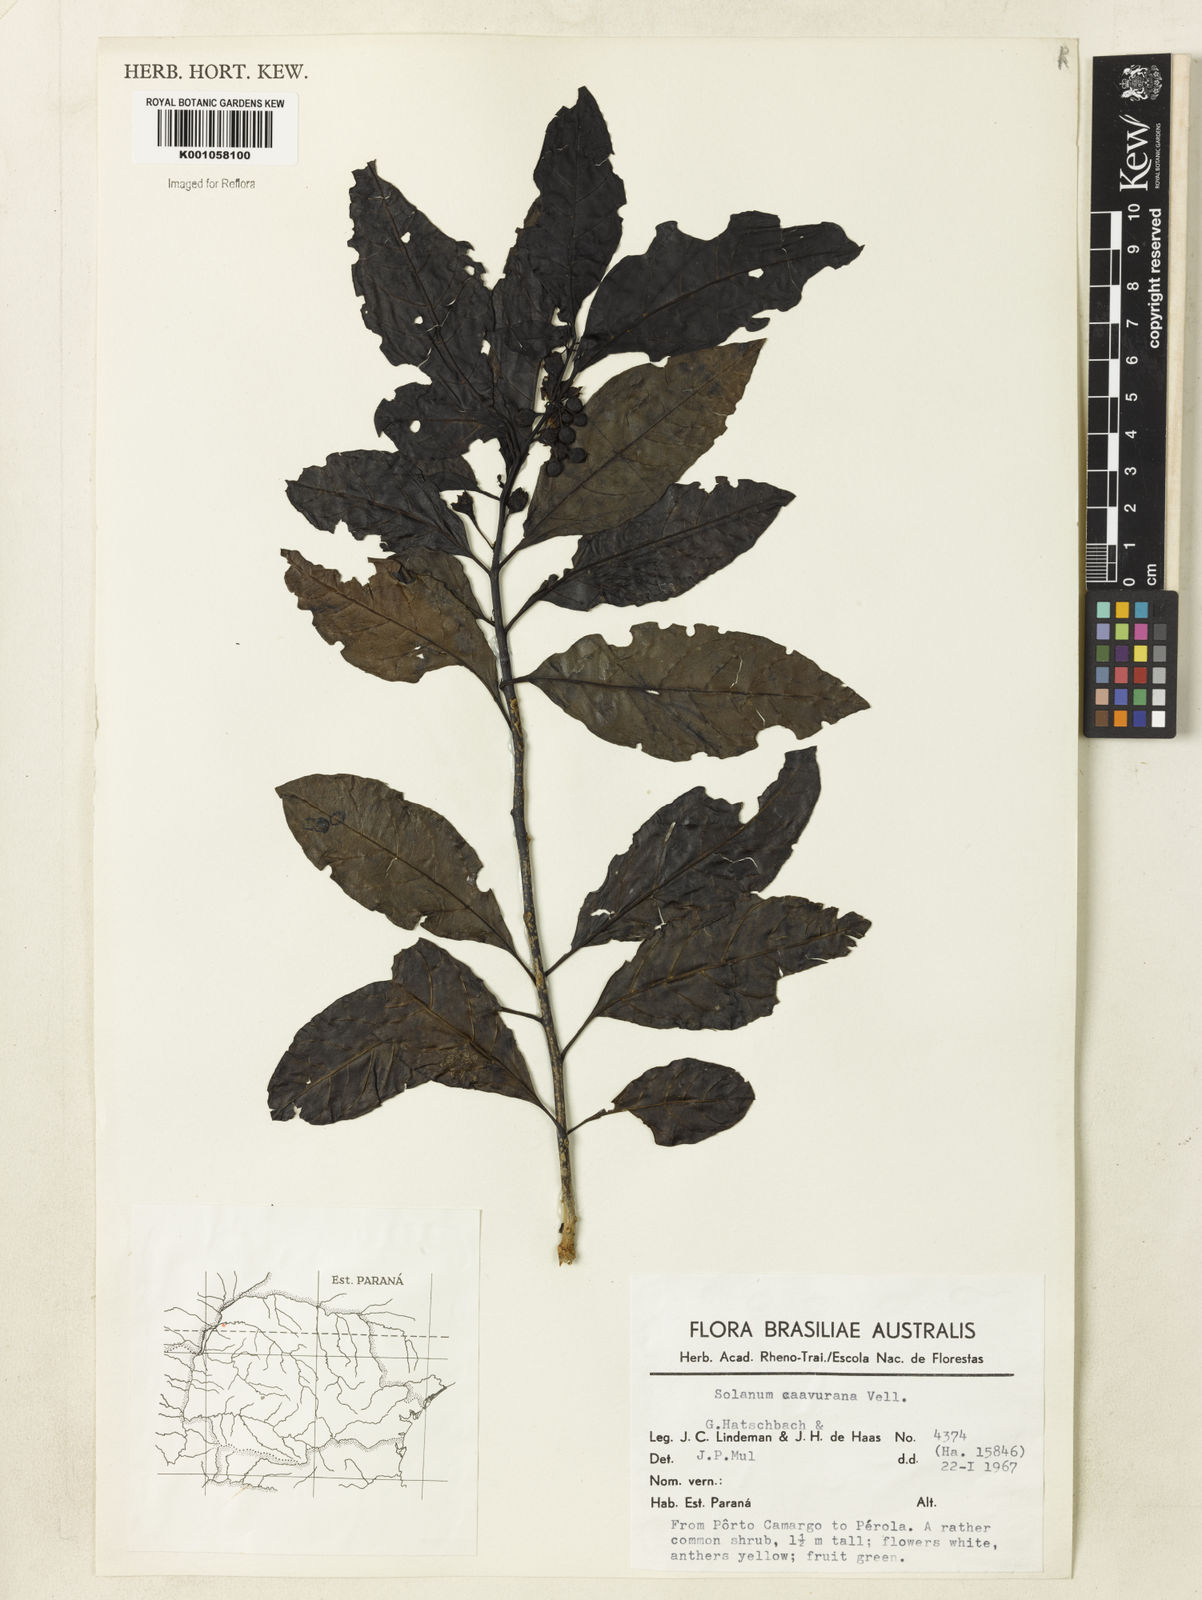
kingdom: Plantae
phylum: Tracheophyta
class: Magnoliopsida
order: Solanales
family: Solanaceae
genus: Solanum
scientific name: Solanum caavurana
